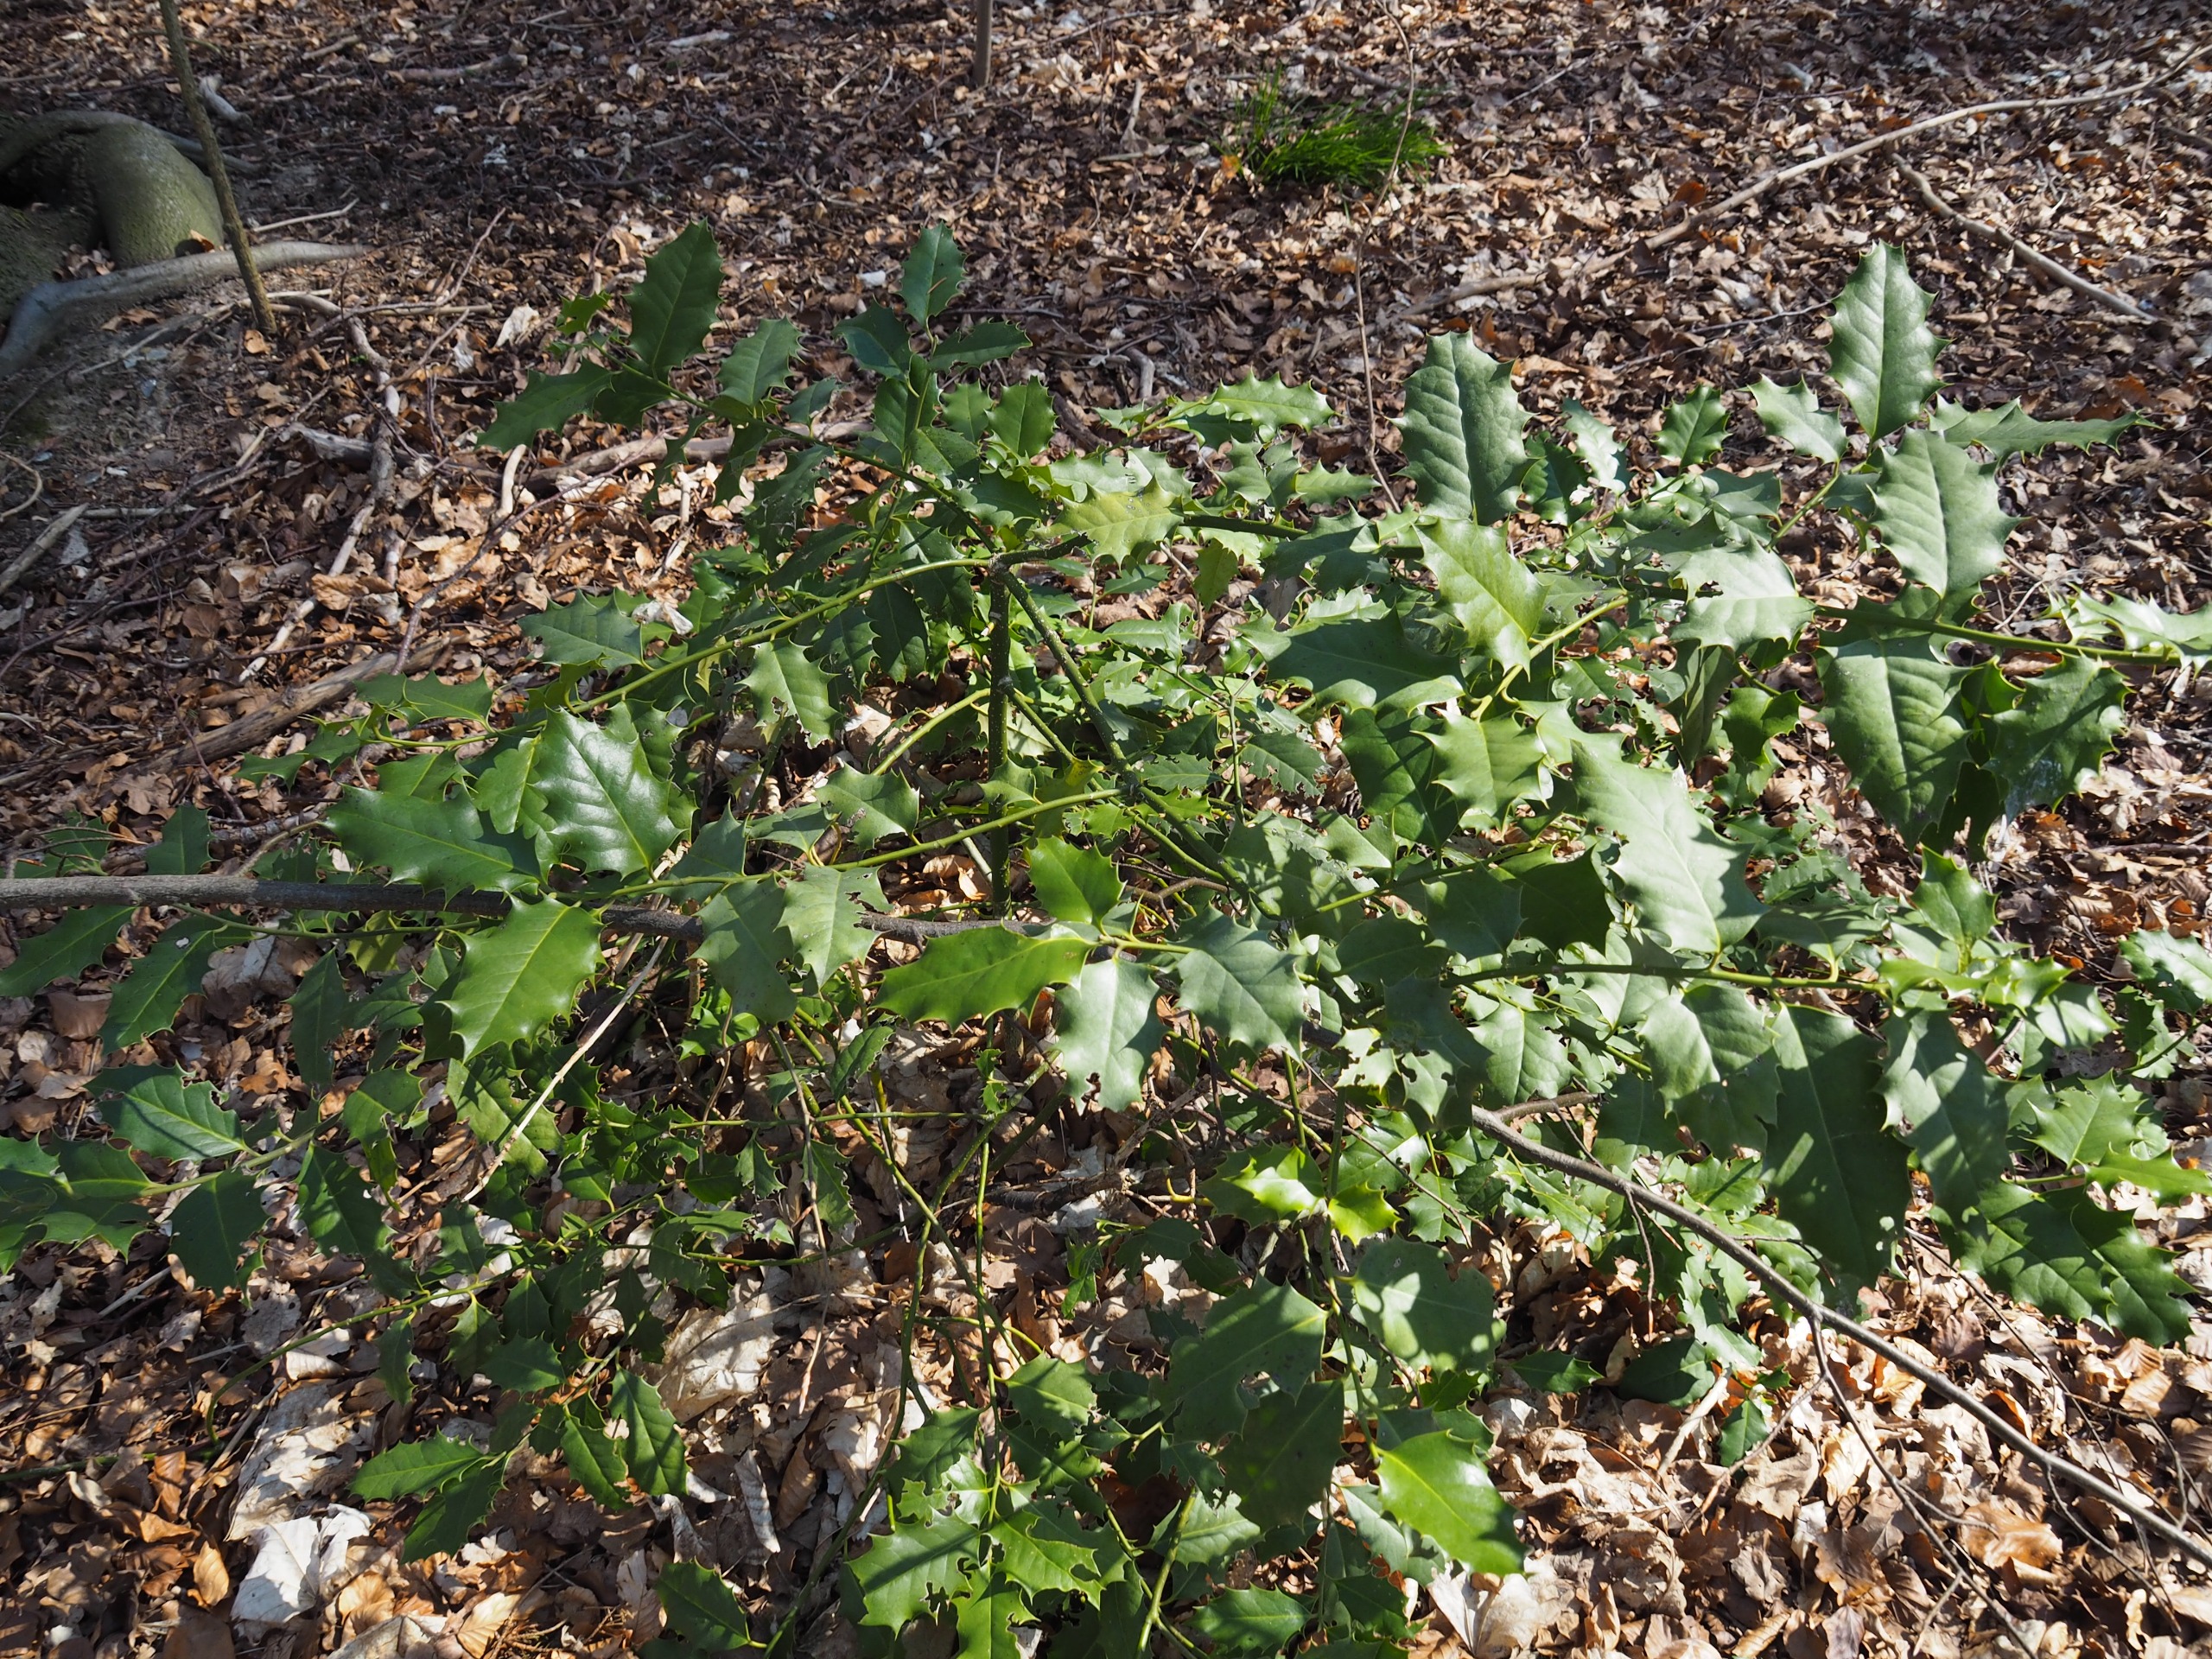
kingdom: Plantae
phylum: Tracheophyta
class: Magnoliopsida
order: Aquifoliales
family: Aquifoliaceae
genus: Ilex
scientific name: Ilex aquifolium
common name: Kristtorn
